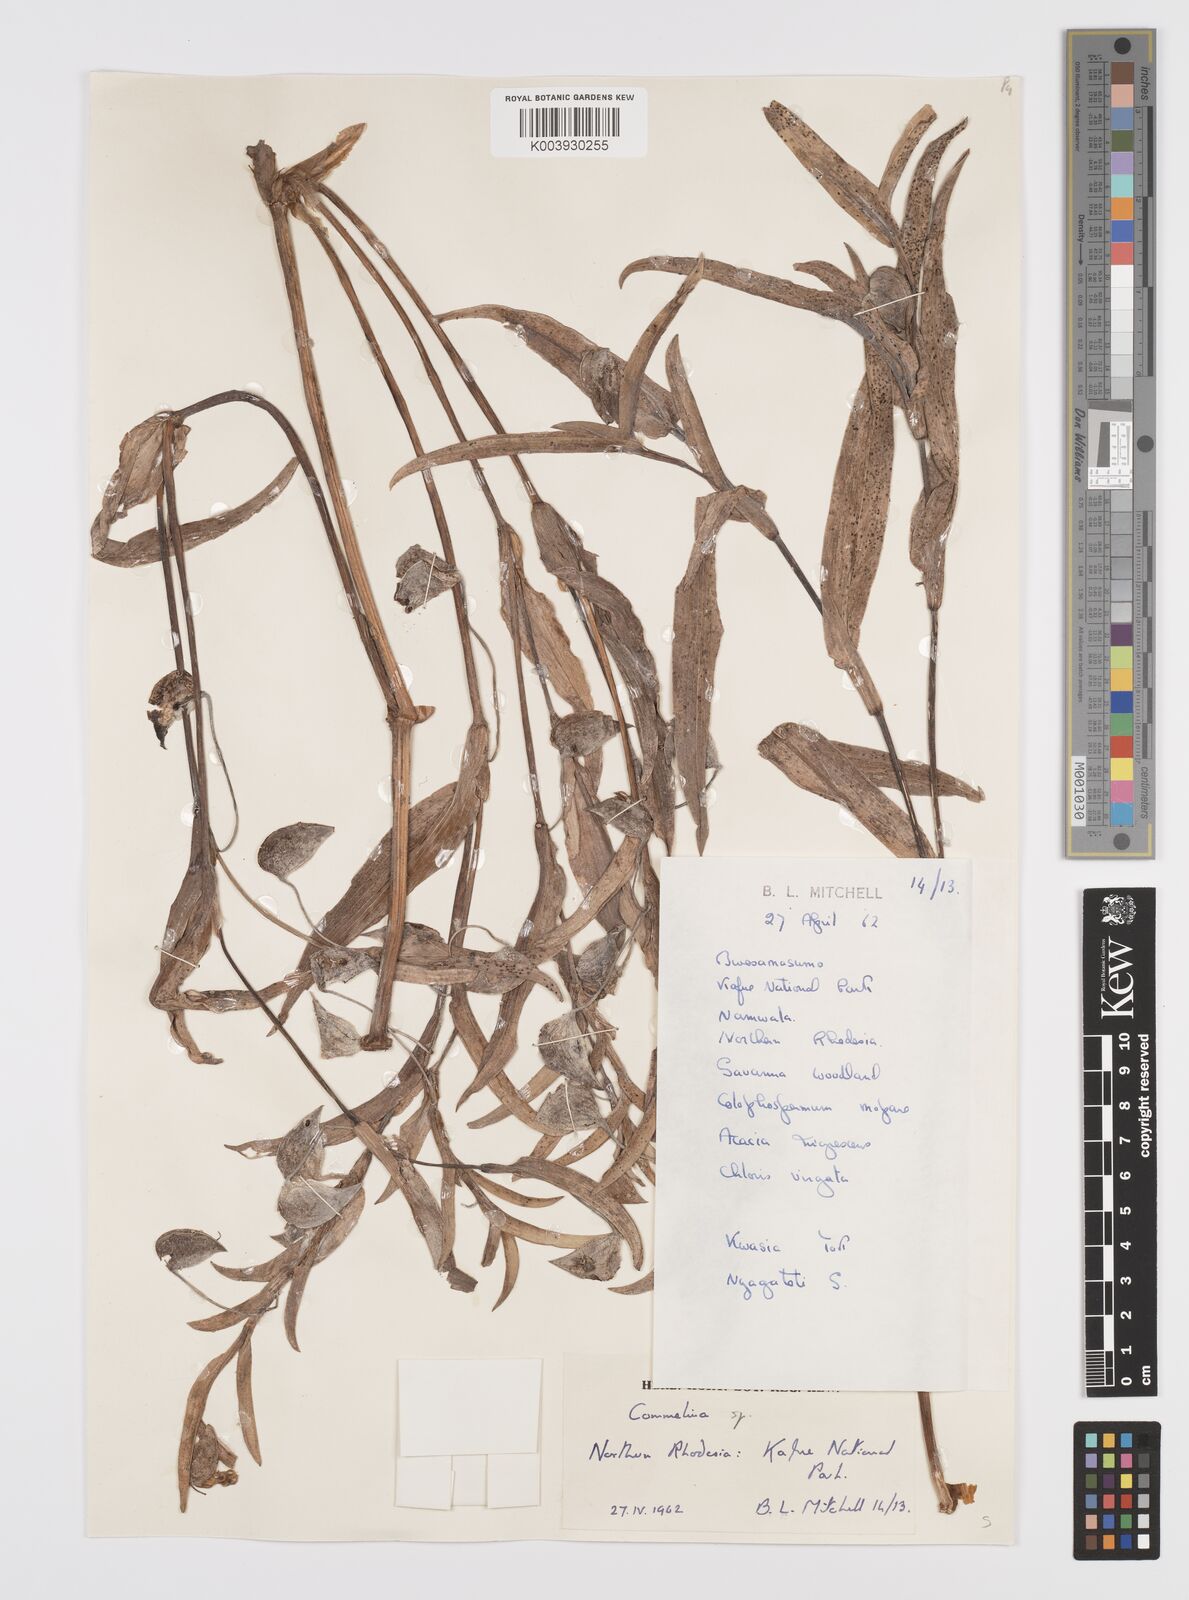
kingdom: Plantae
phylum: Tracheophyta
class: Liliopsida
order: Commelinales
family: Commelinaceae
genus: Commelina
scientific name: Commelina schweinfurthii
